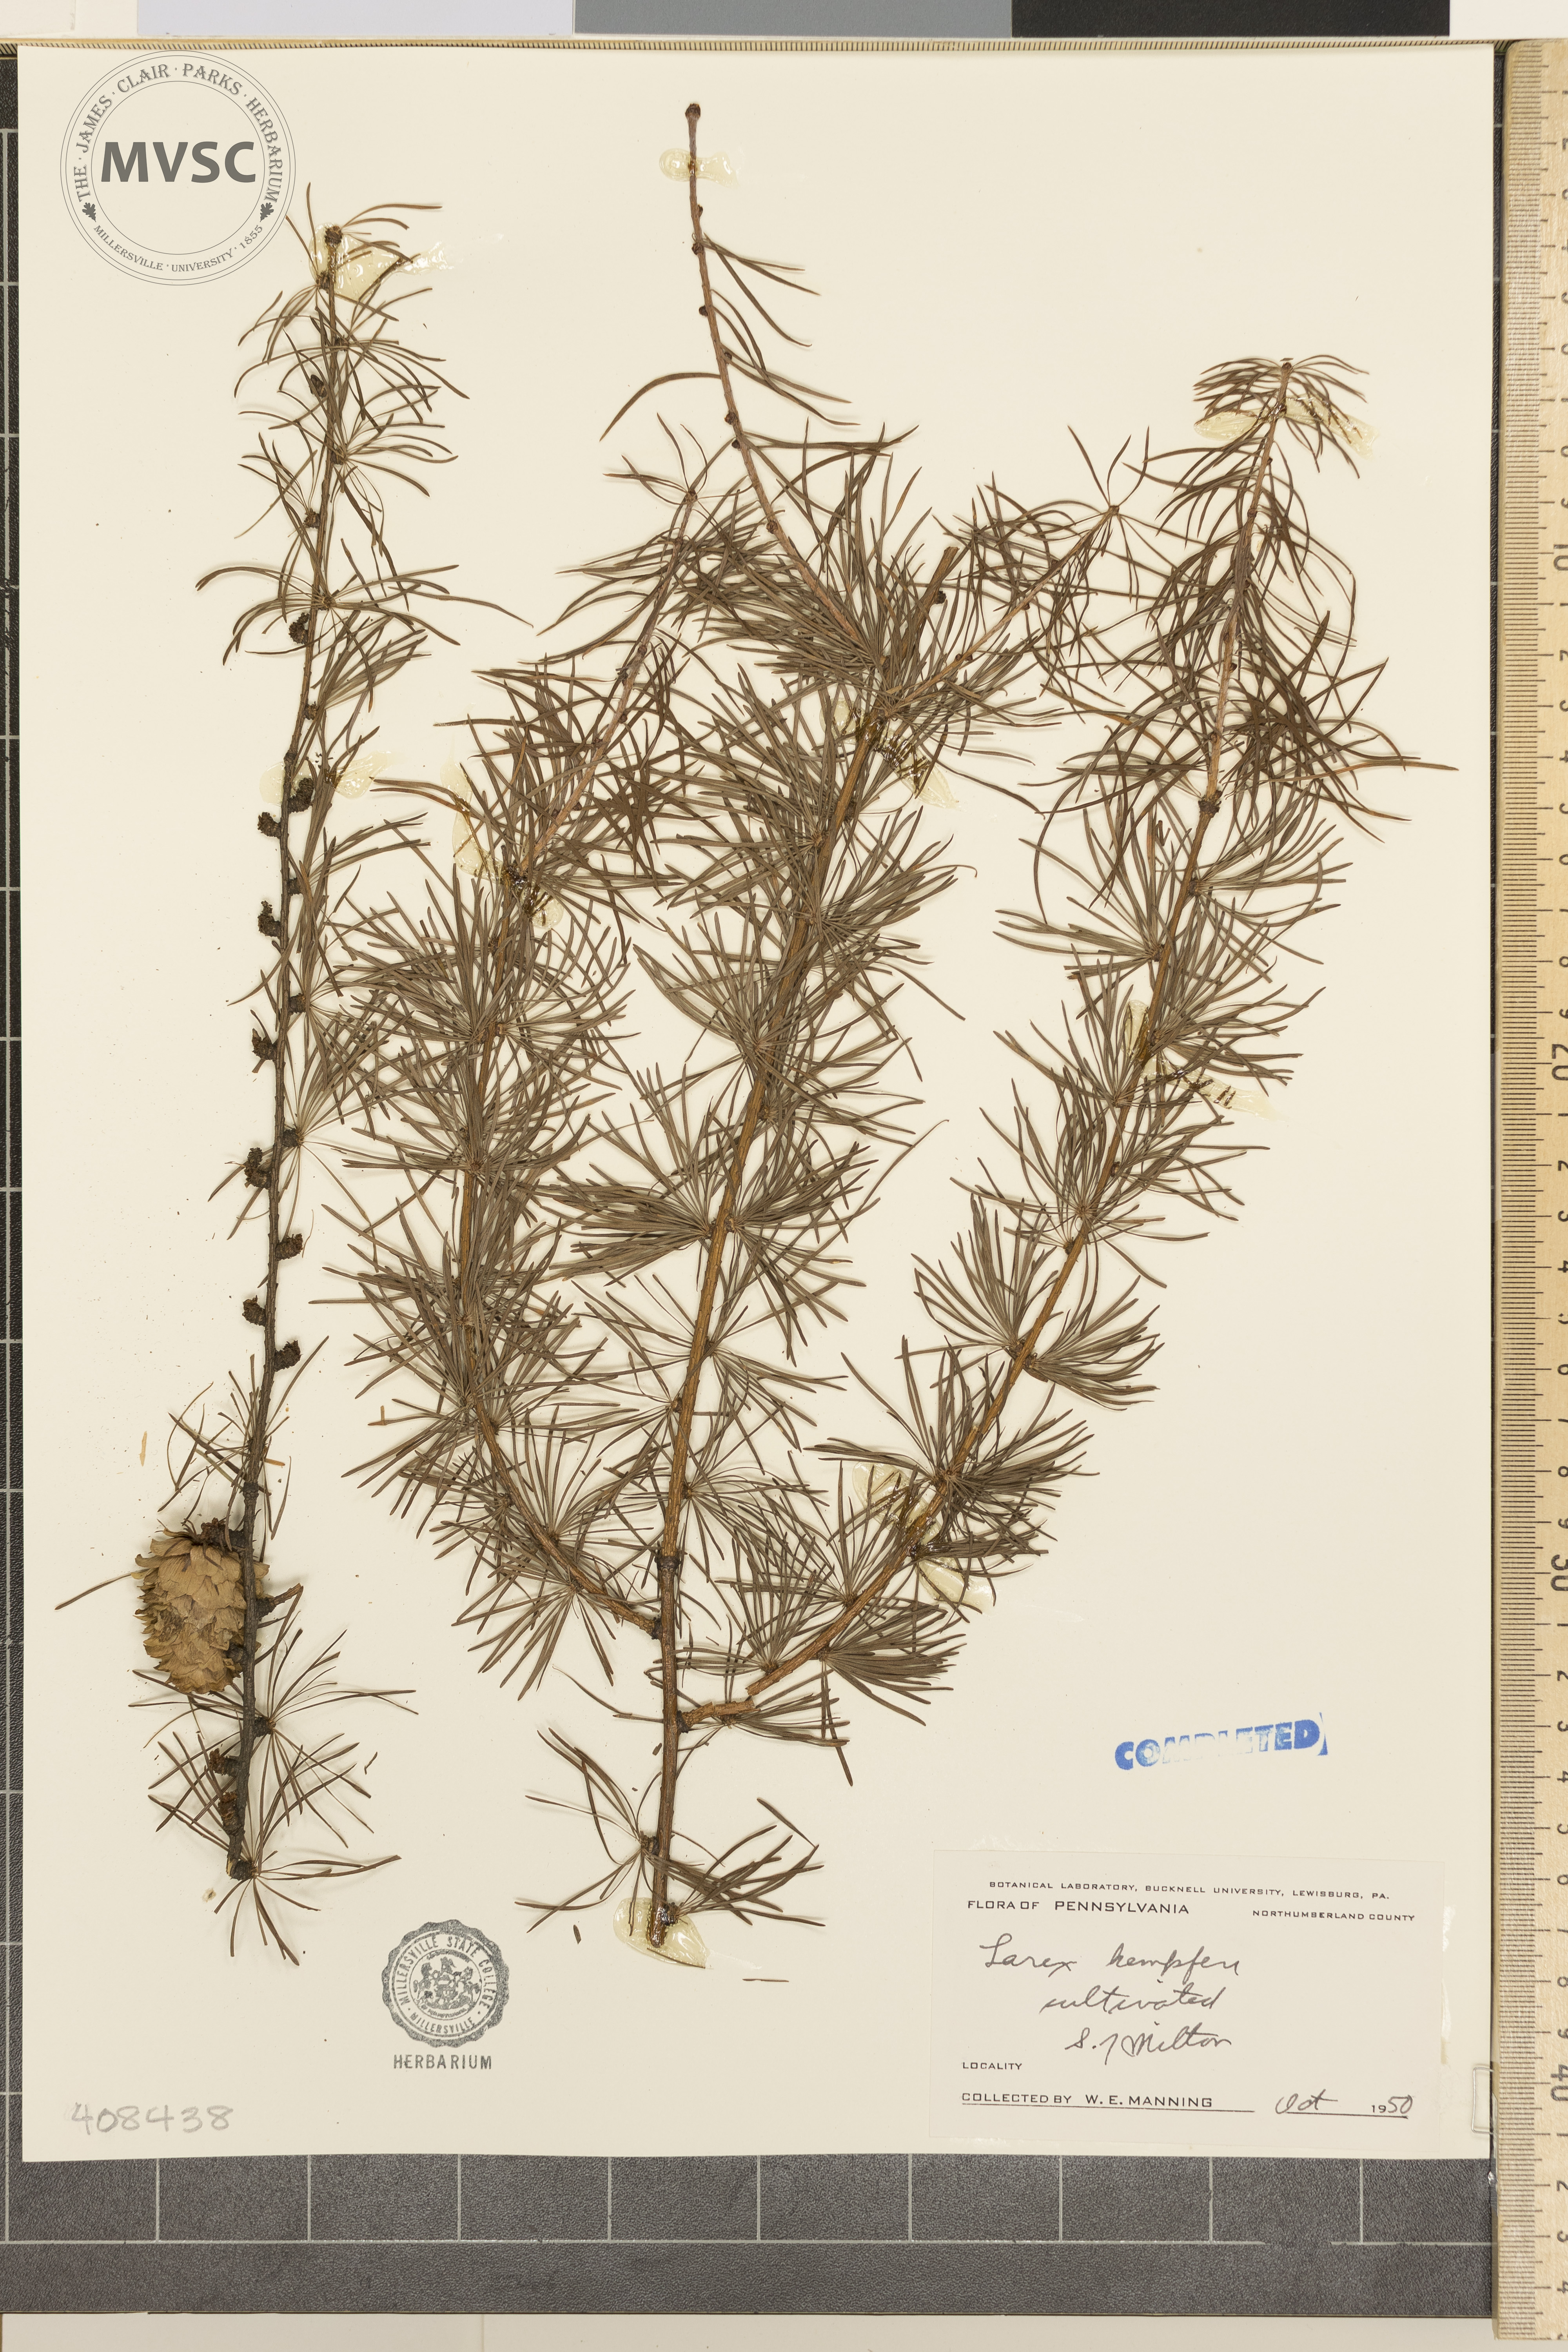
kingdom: Plantae
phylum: Tracheophyta
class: Pinopsida
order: Pinales
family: Pinaceae
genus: Larix
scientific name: Larix kaempferi
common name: Japanese larch
